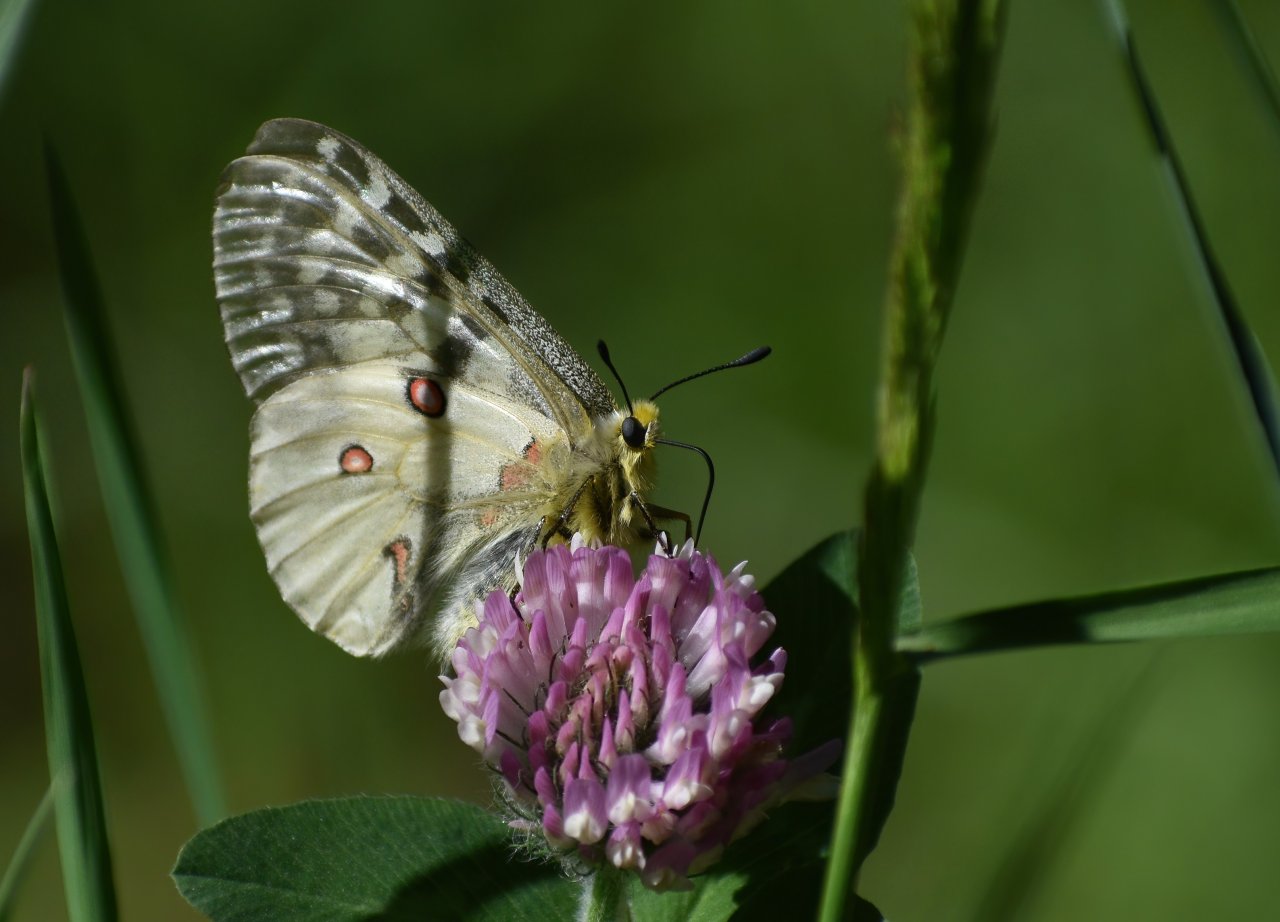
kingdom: Animalia
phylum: Arthropoda
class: Insecta
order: Lepidoptera
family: Papilionidae
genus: Parnassius
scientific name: Parnassius clodius
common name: Clodius Parnassian
